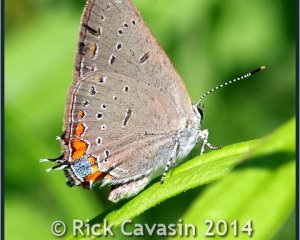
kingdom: Animalia
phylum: Arthropoda
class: Insecta
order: Lepidoptera
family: Lycaenidae
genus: Strymon
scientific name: Strymon acadica
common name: Acadian Hairstreak
